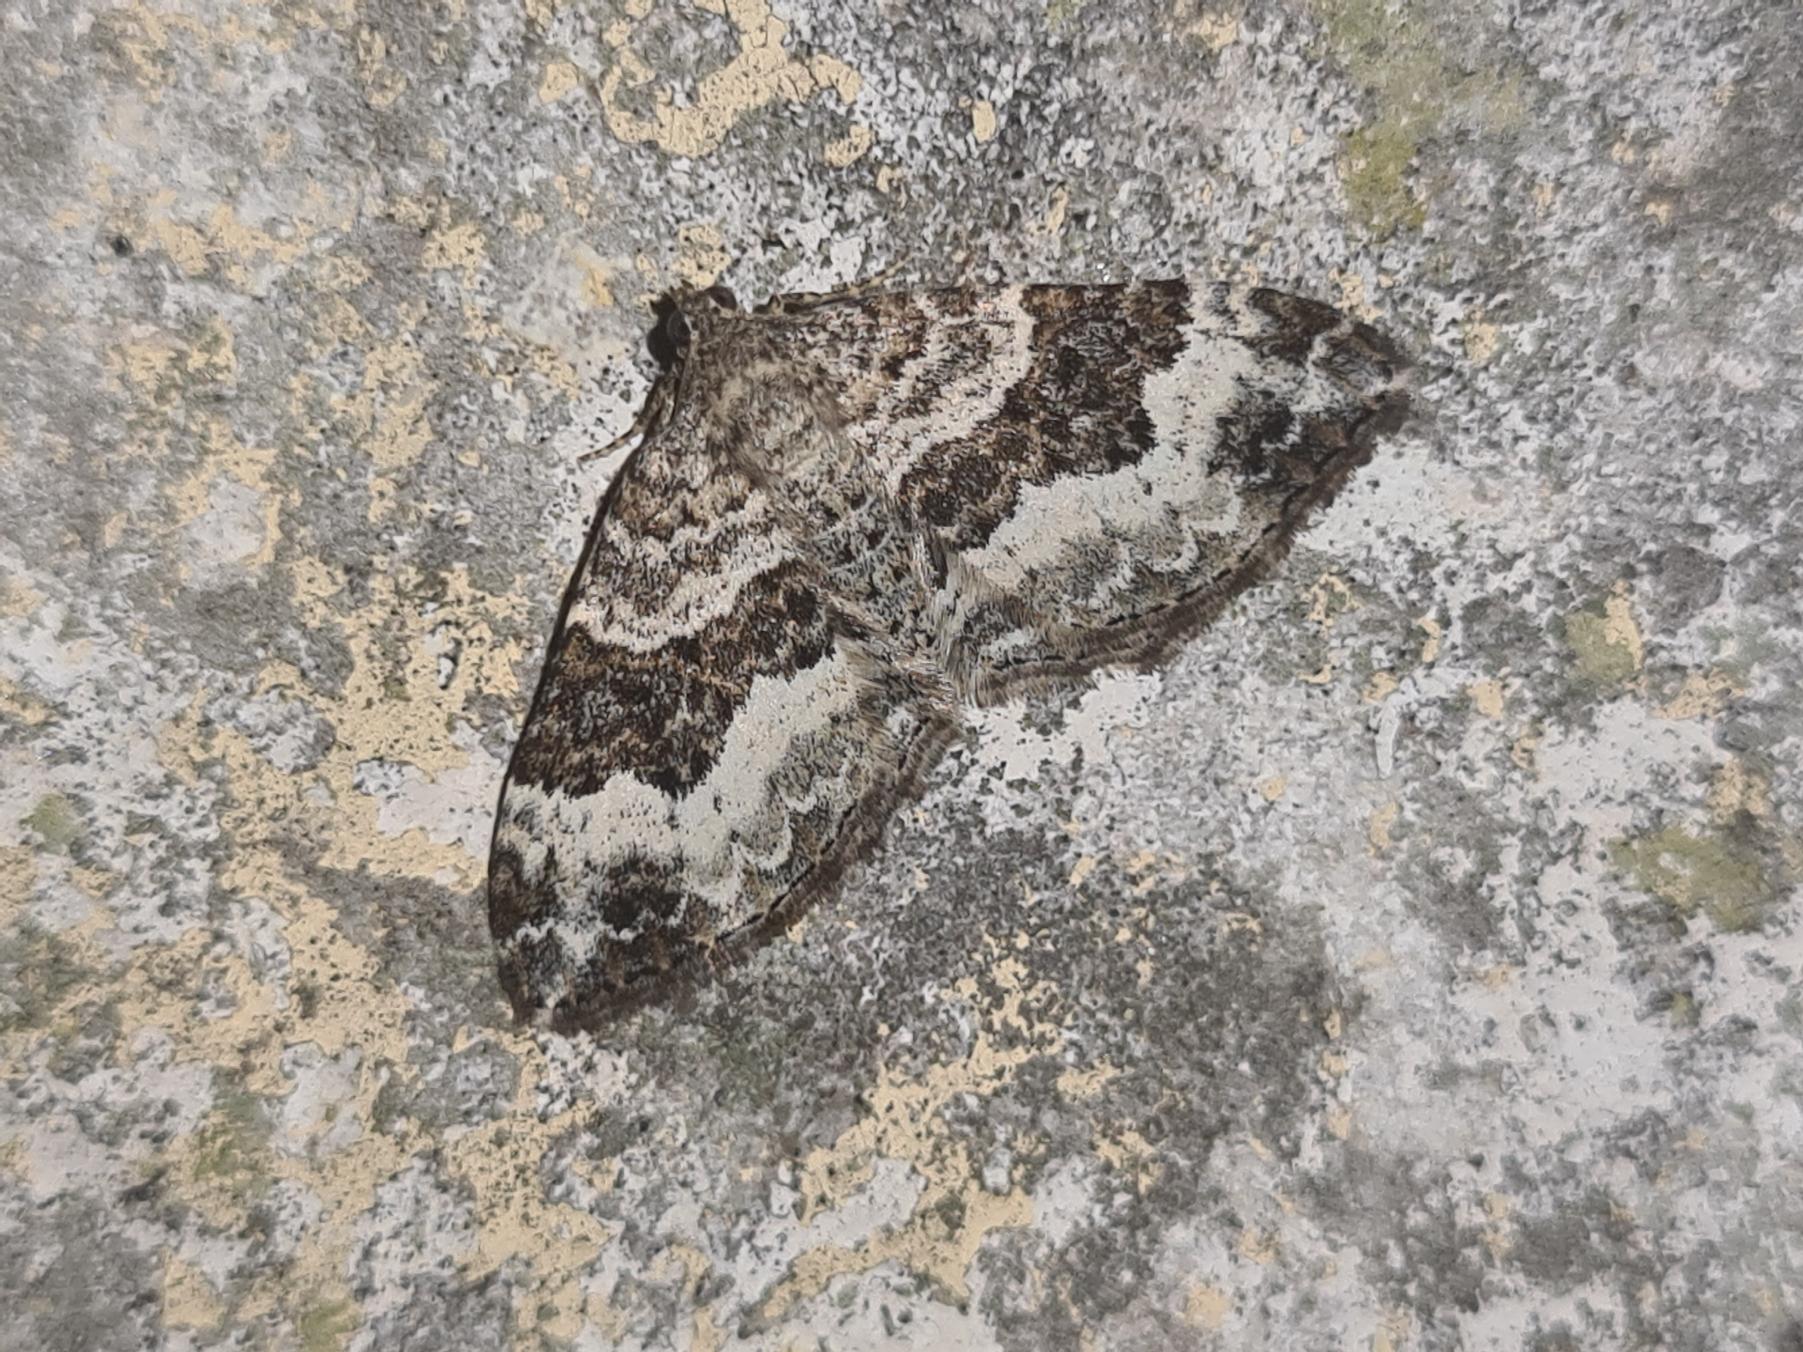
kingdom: Animalia
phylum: Arthropoda
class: Insecta
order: Lepidoptera
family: Geometridae
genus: Epirrhoe
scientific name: Epirrhoe alternata
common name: Almindelig bladmåler
